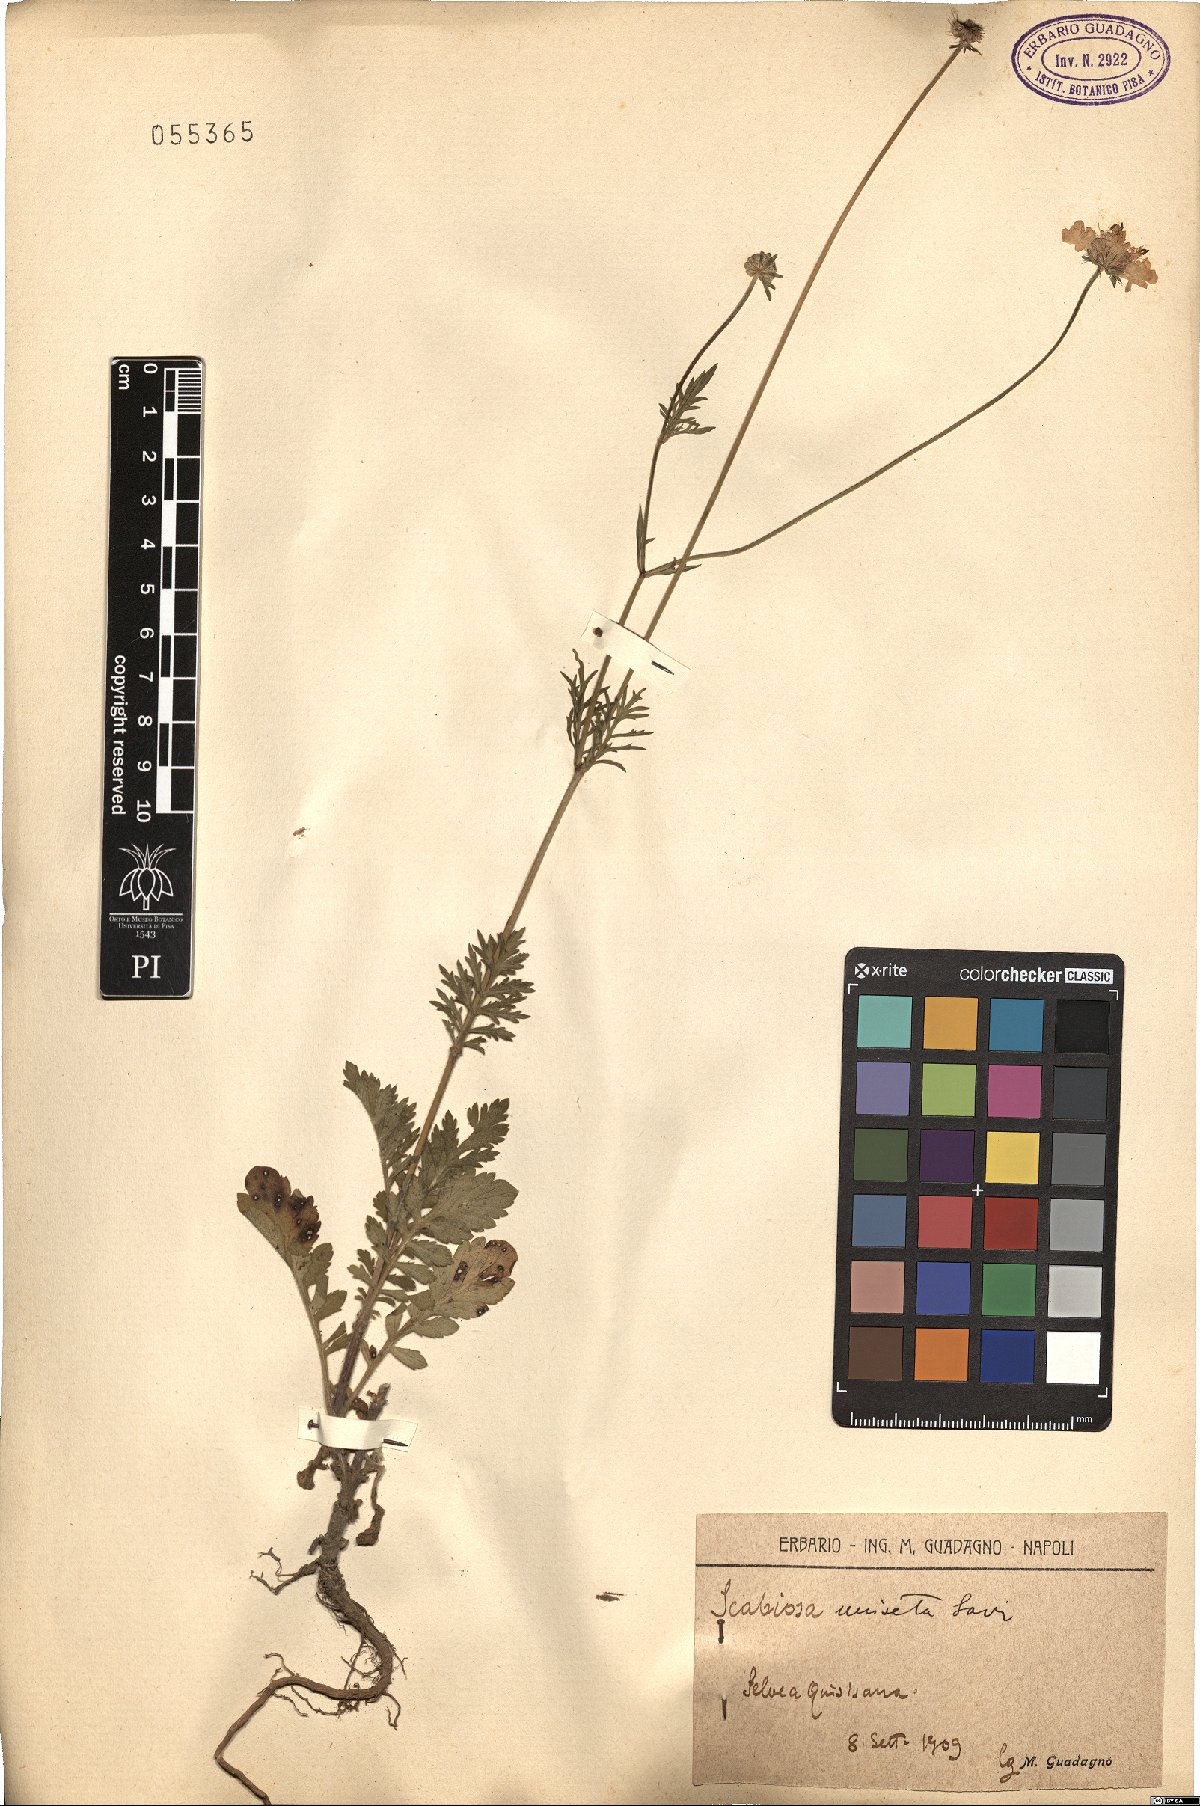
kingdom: Plantae
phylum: Tracheophyta
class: Magnoliopsida
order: Dipsacales
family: Caprifoliaceae
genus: Scabiosa
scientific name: Scabiosa columbaria
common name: Small scabious
